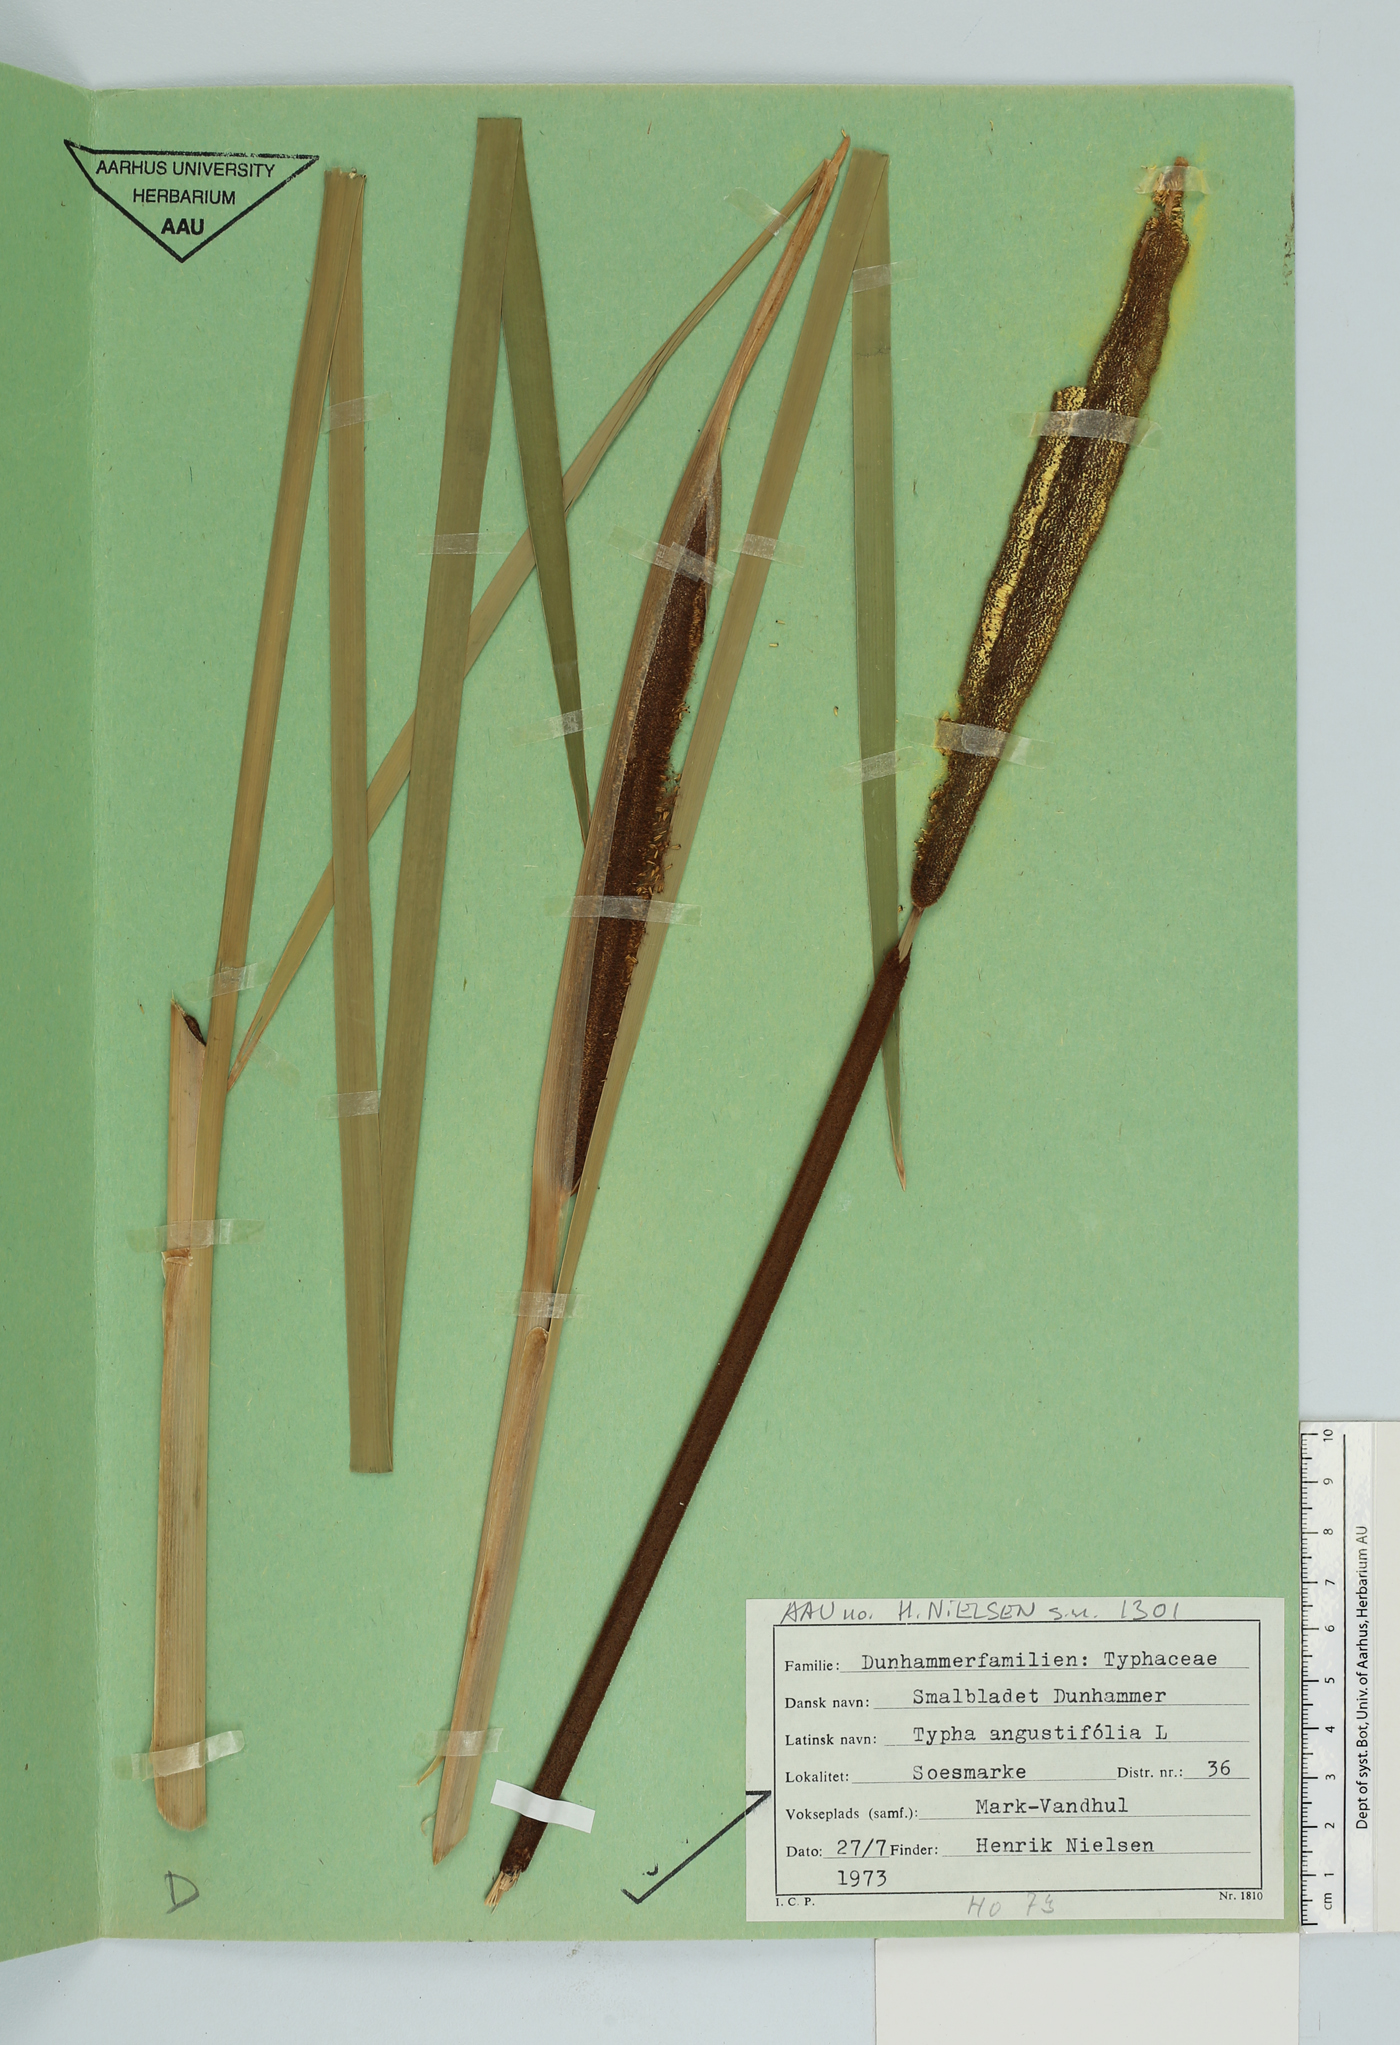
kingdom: Plantae
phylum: Tracheophyta
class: Liliopsida
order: Poales
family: Typhaceae
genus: Typha
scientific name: Typha angustifolia
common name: Lesser bulrush
